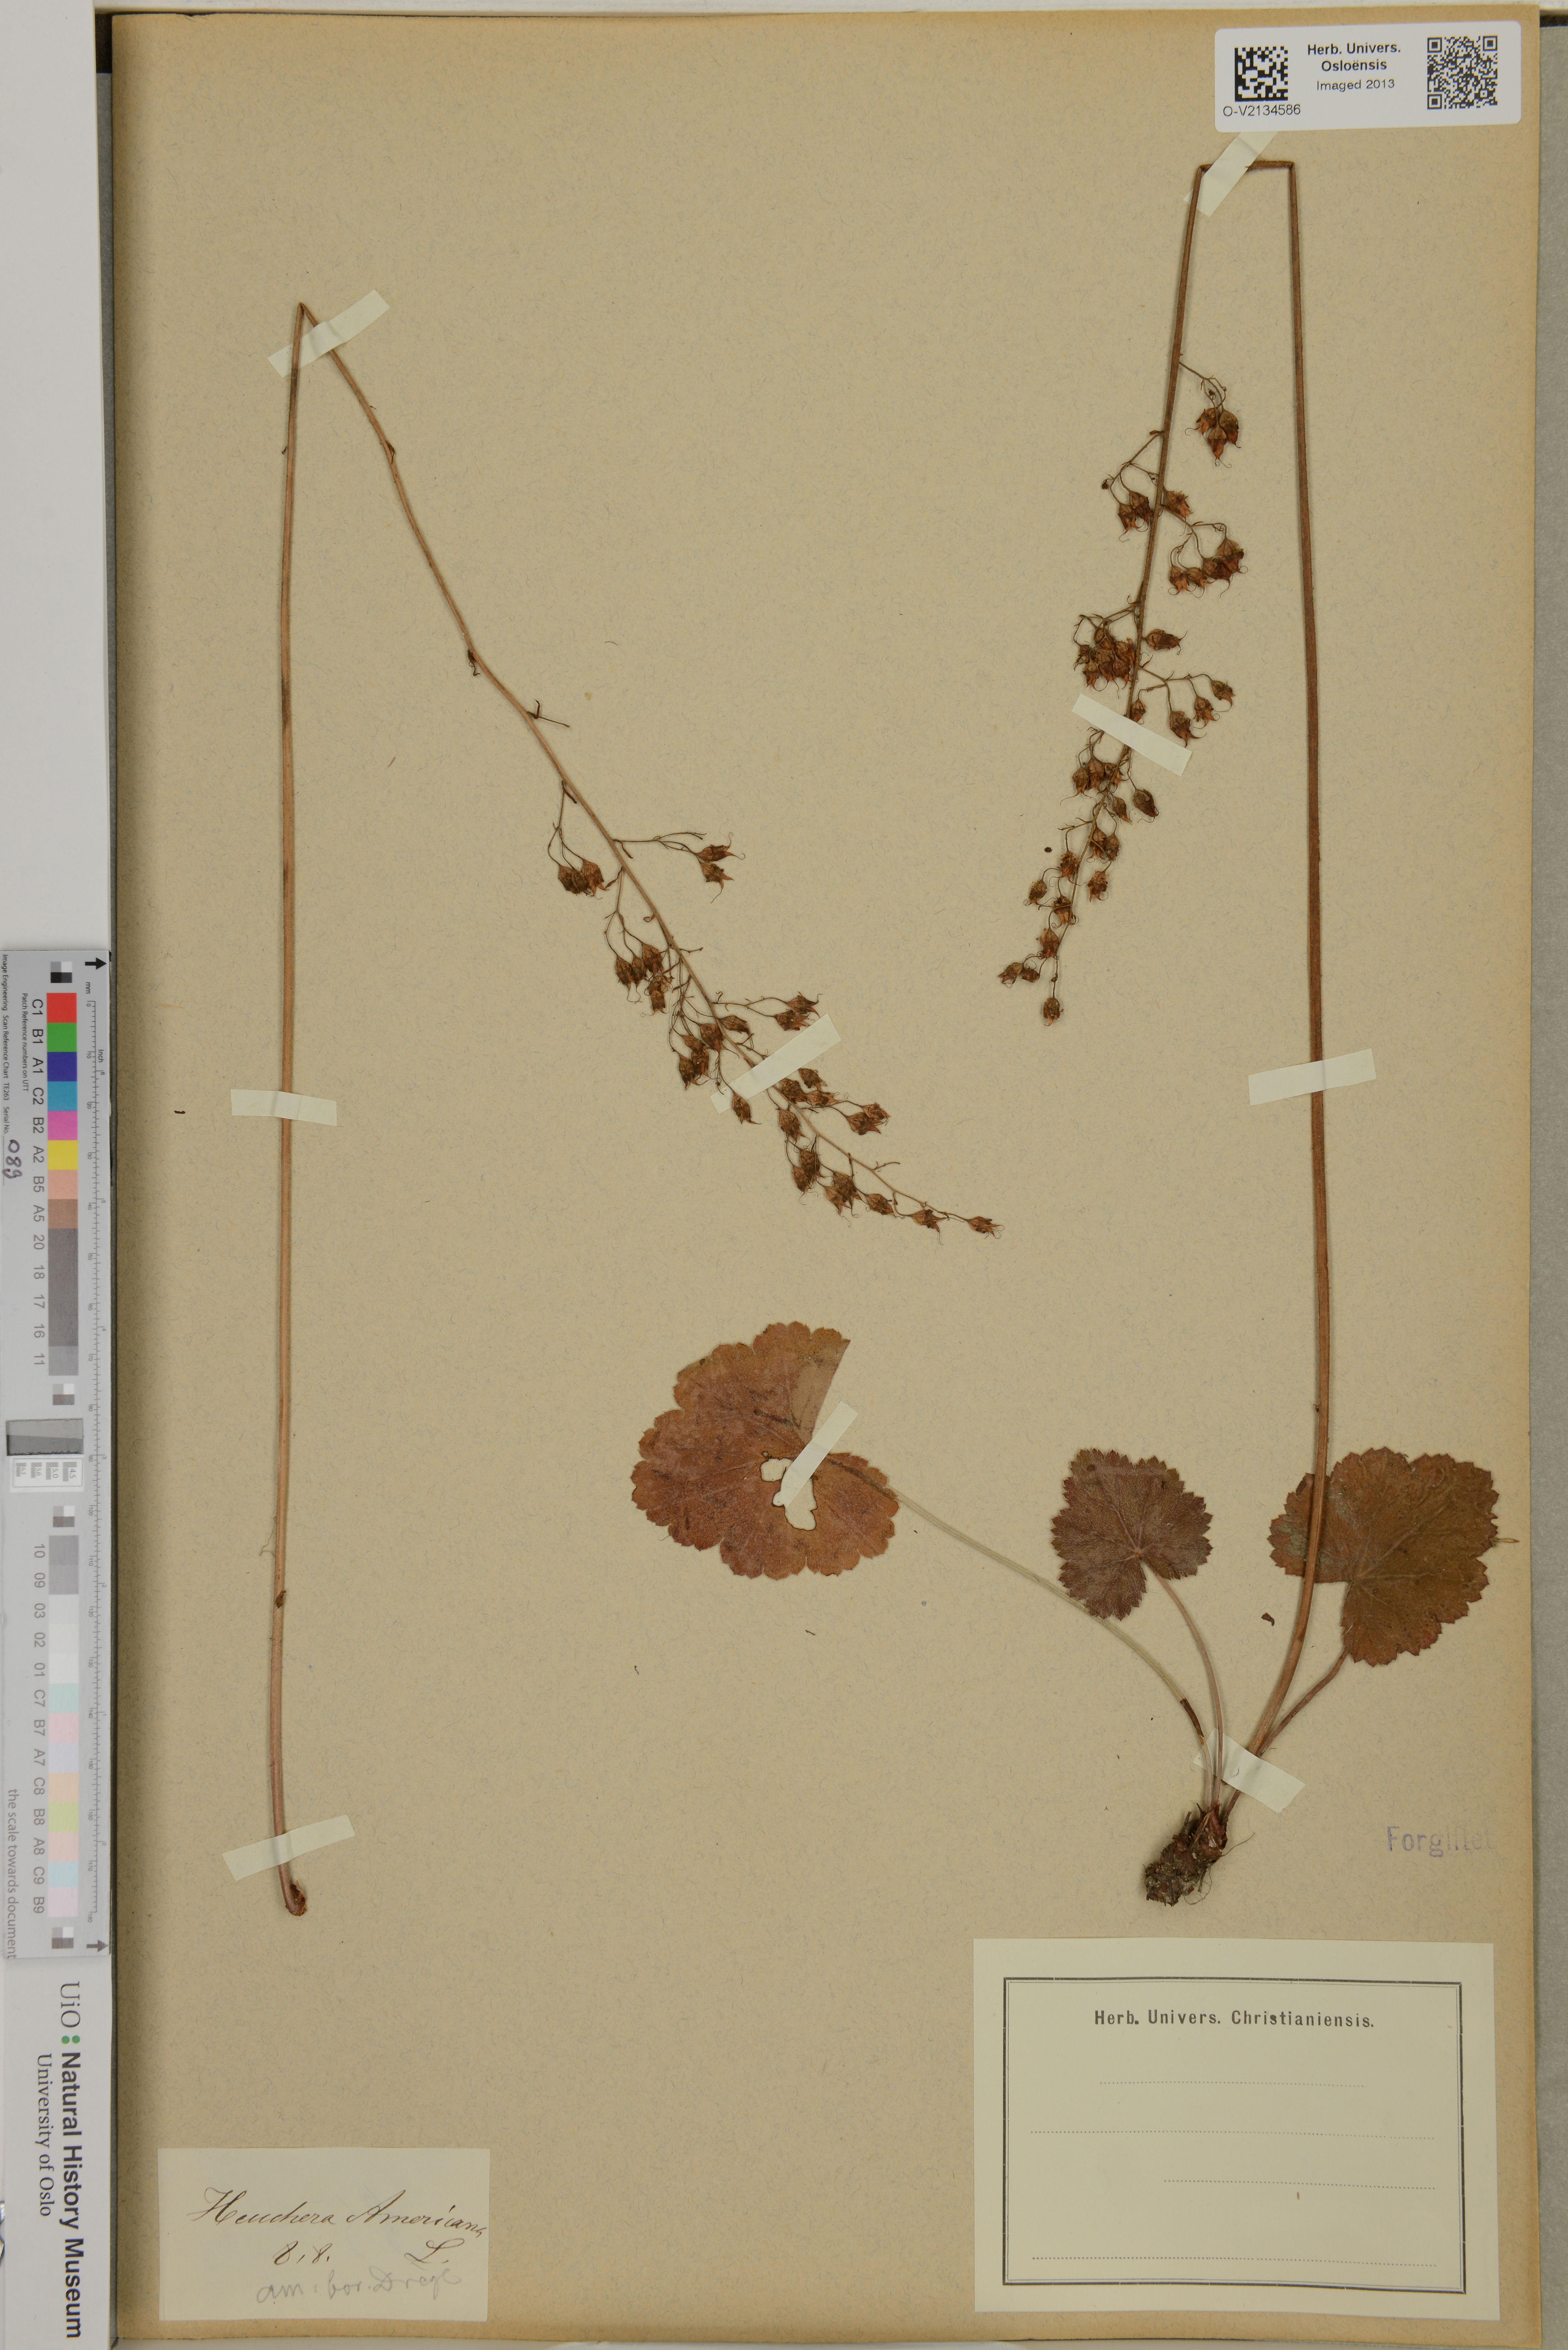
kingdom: Plantae
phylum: Tracheophyta
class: Magnoliopsida
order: Saxifragales
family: Saxifragaceae
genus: Heuchera
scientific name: Heuchera americana
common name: Alumroot
